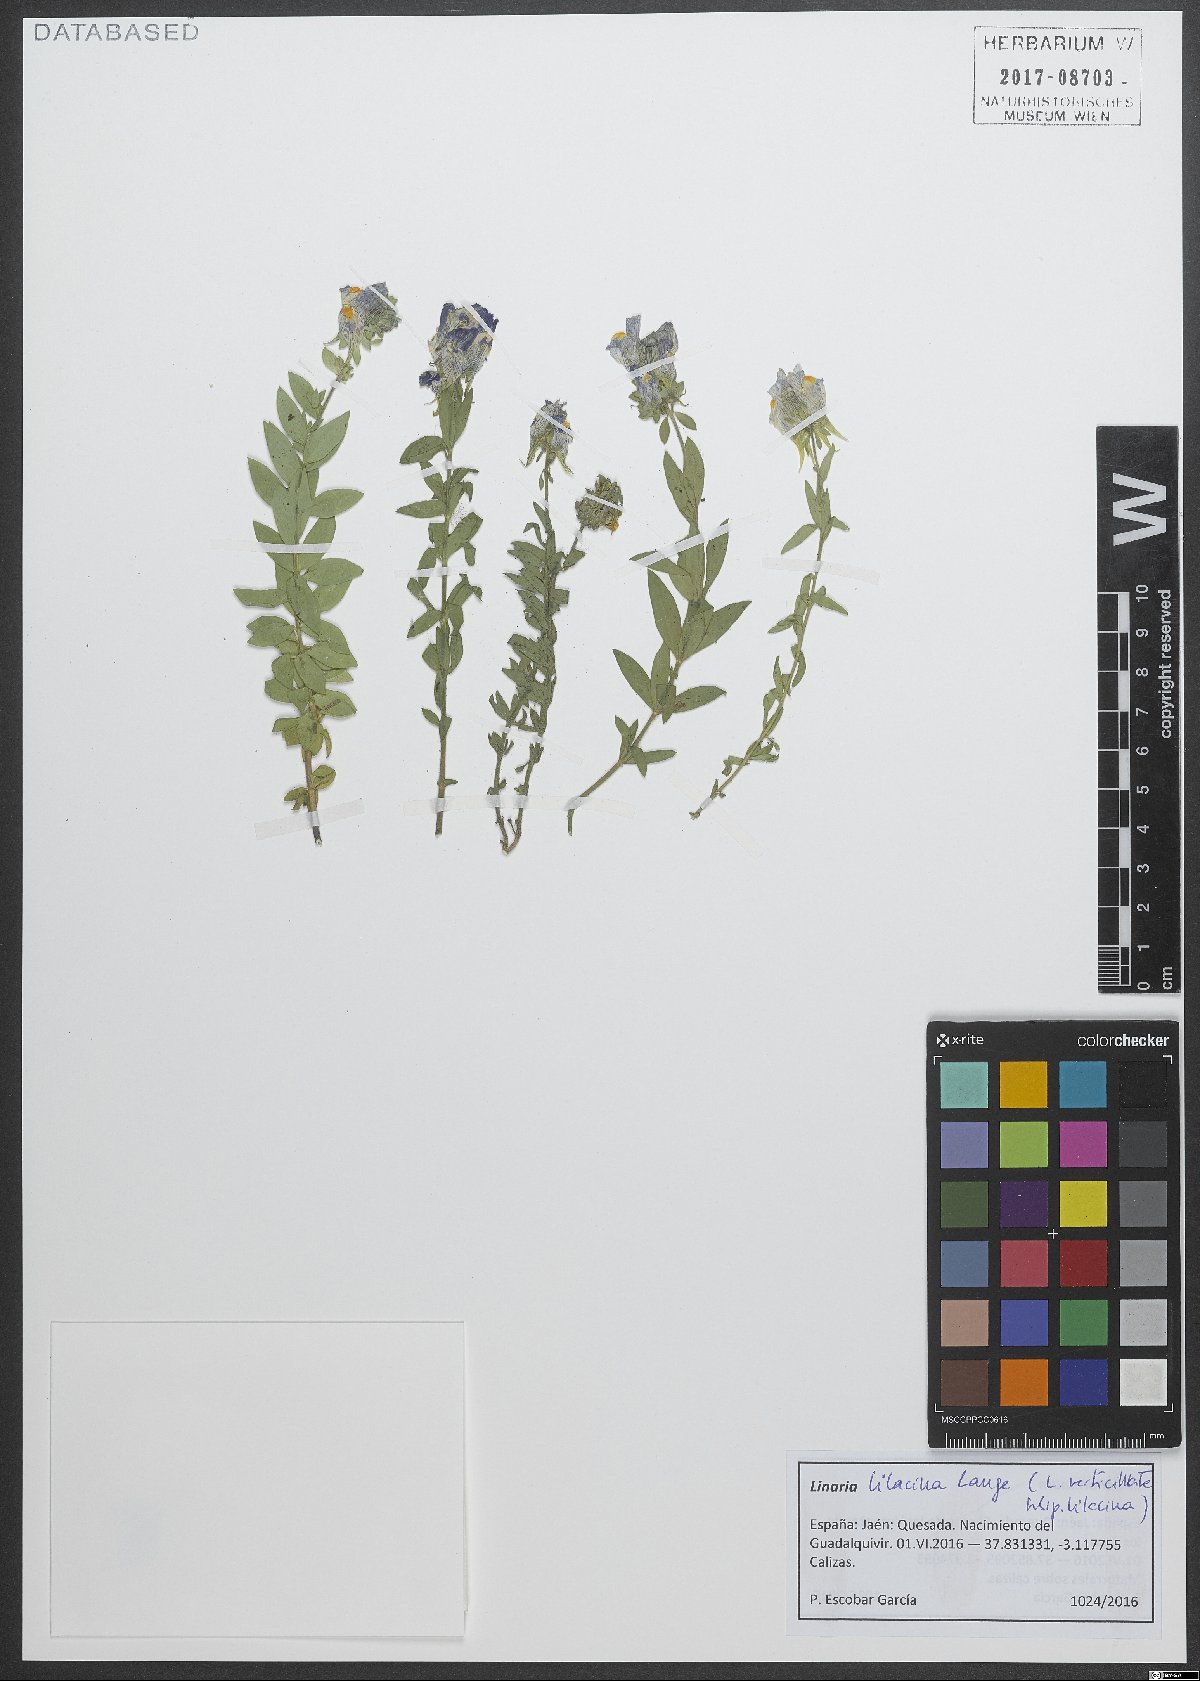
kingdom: Plantae
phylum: Tracheophyta
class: Magnoliopsida
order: Lamiales
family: Plantaginaceae
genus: Linaria
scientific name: Linaria verticillata
